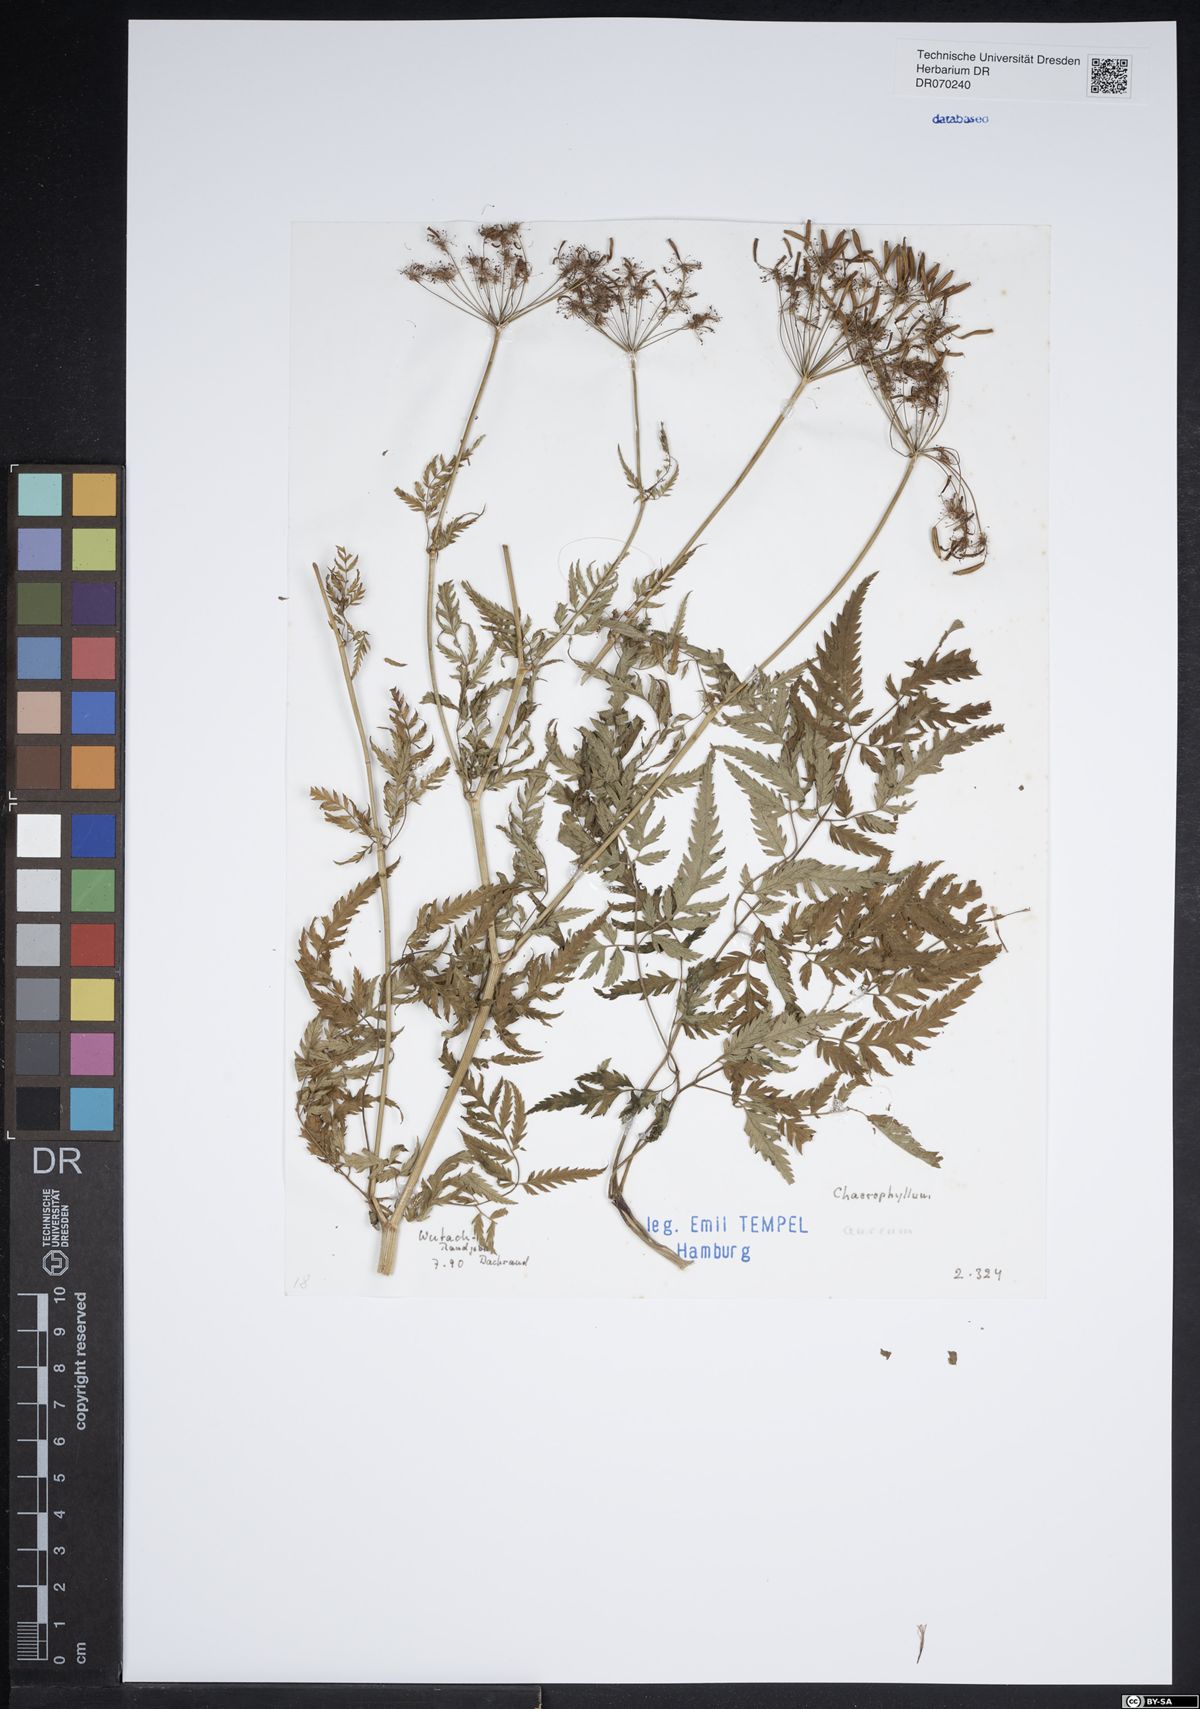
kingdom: Plantae
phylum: Tracheophyta
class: Magnoliopsida
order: Apiales
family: Apiaceae
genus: Chaerophyllum
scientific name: Chaerophyllum aureum
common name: Golden chervil
